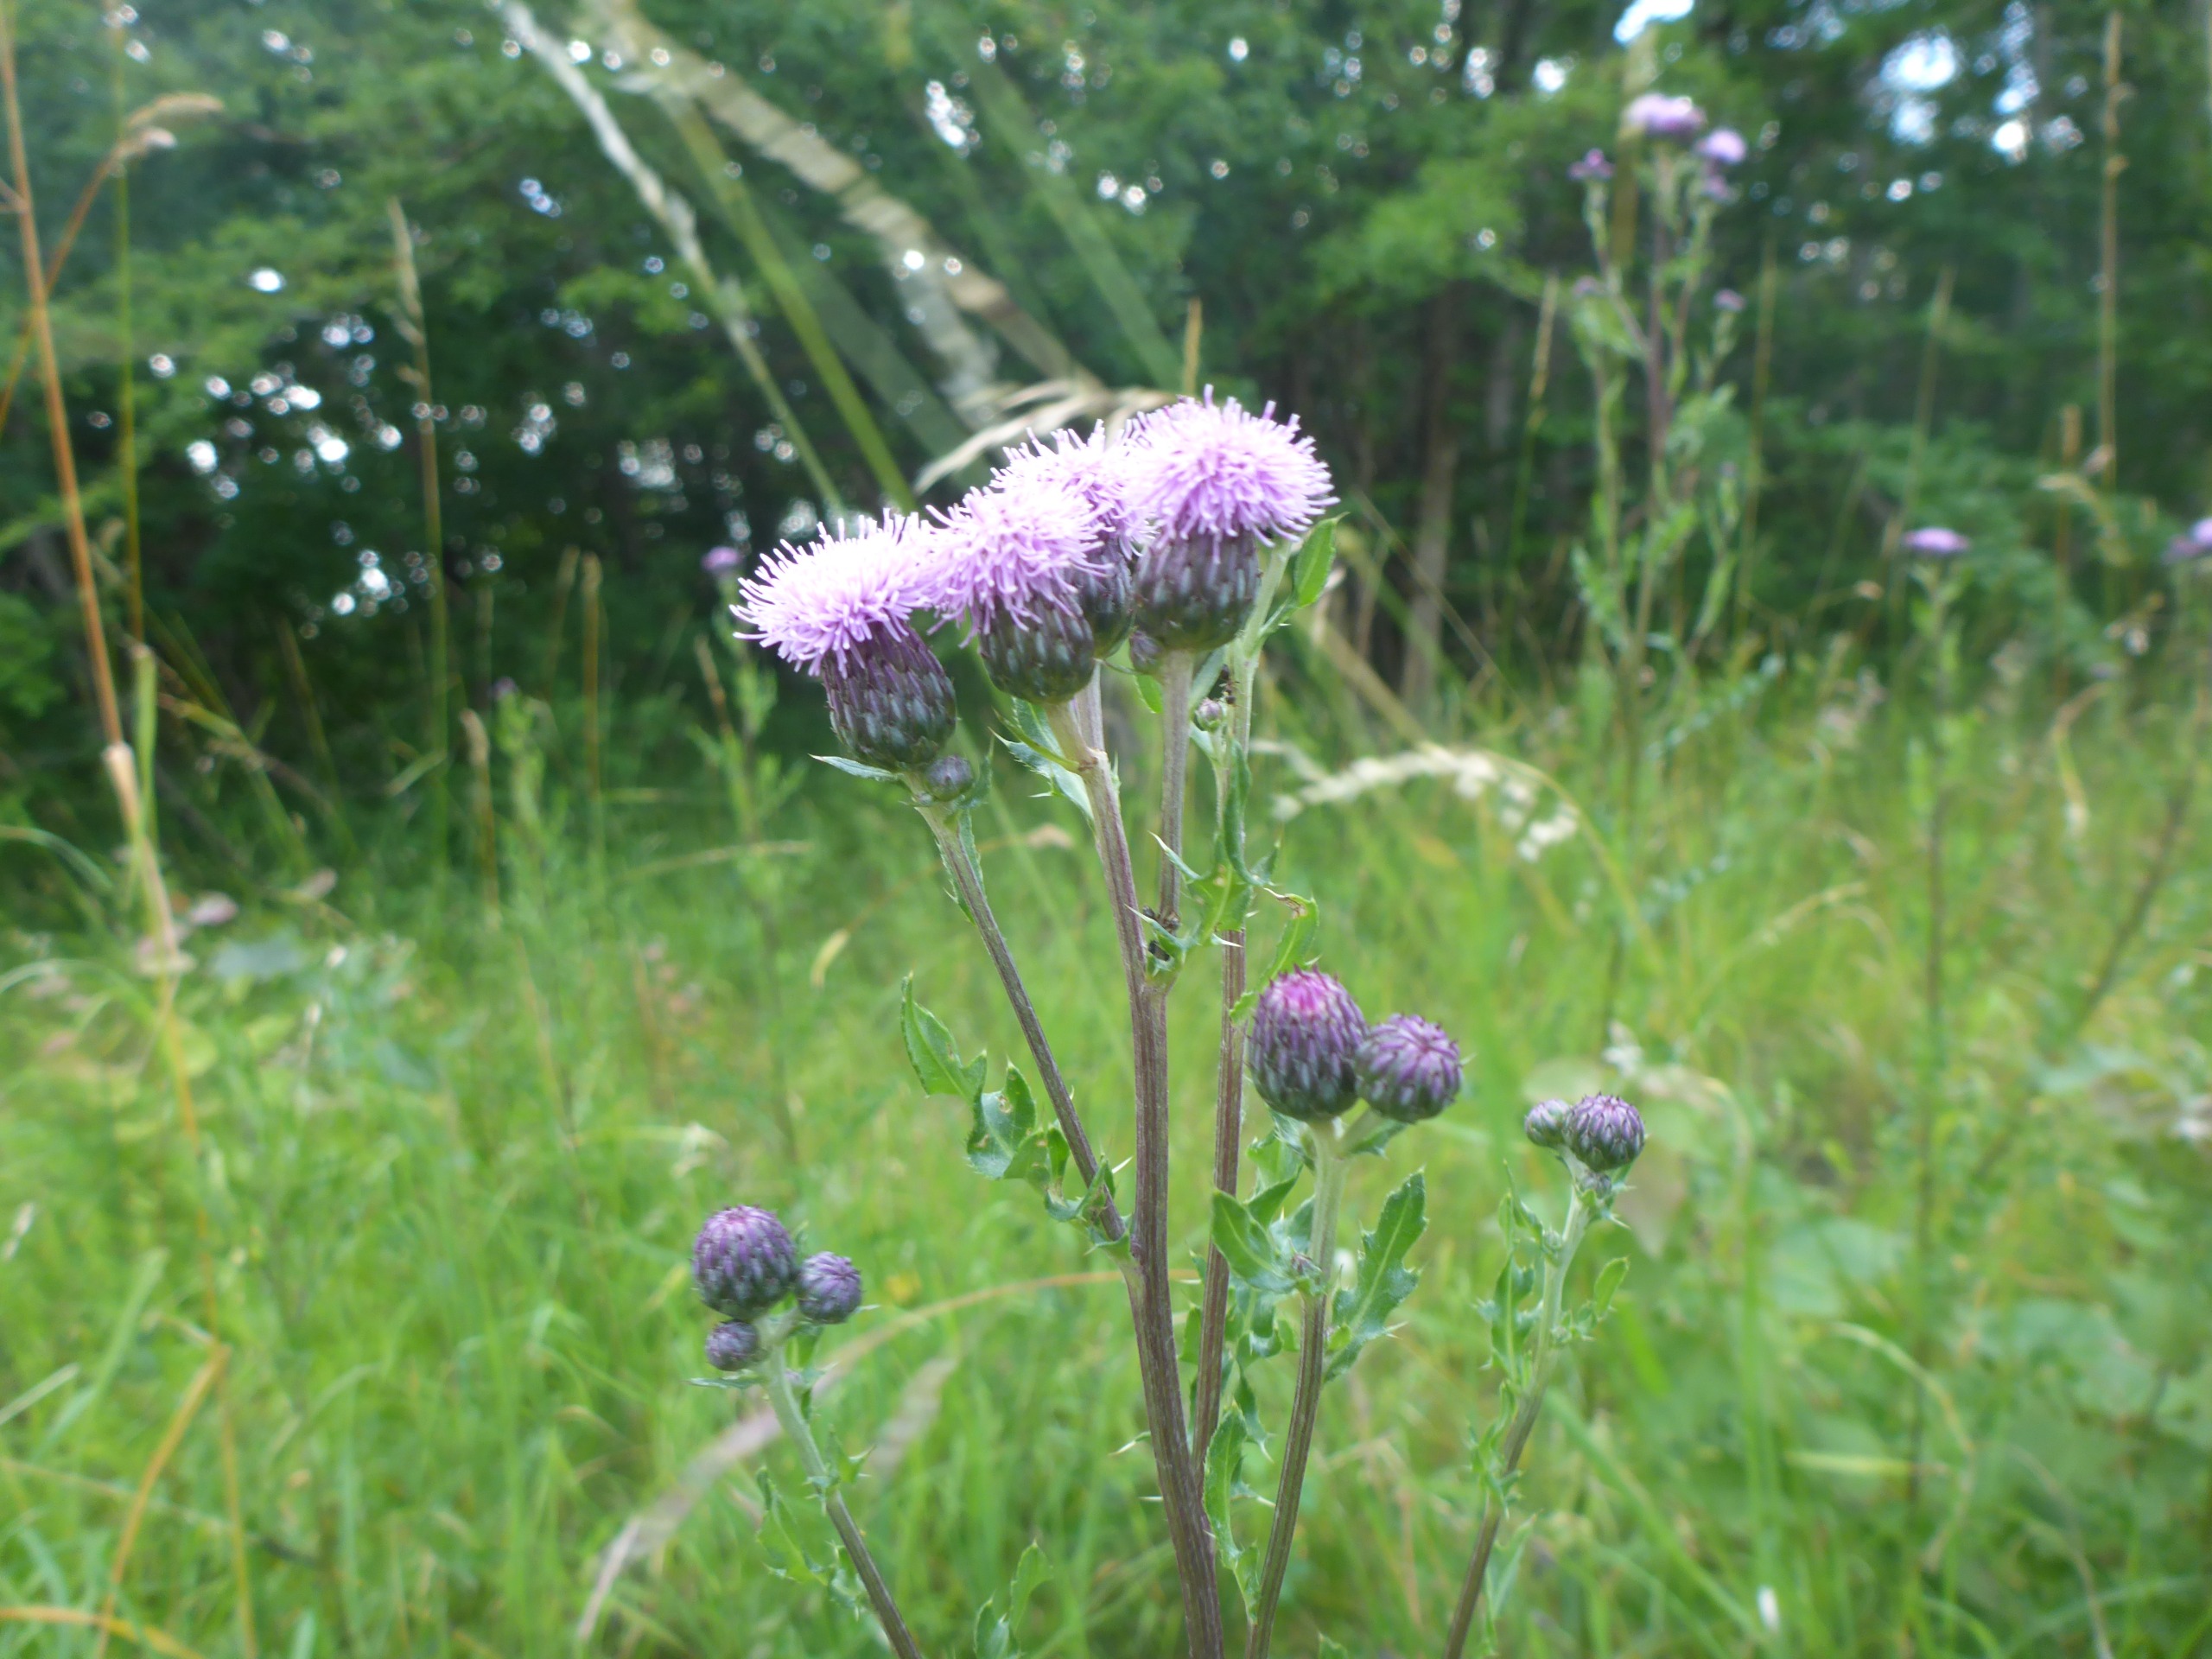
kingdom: Plantae
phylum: Tracheophyta
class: Magnoliopsida
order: Asterales
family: Asteraceae
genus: Cirsium
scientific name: Cirsium arvense
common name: Ager-tidsel
